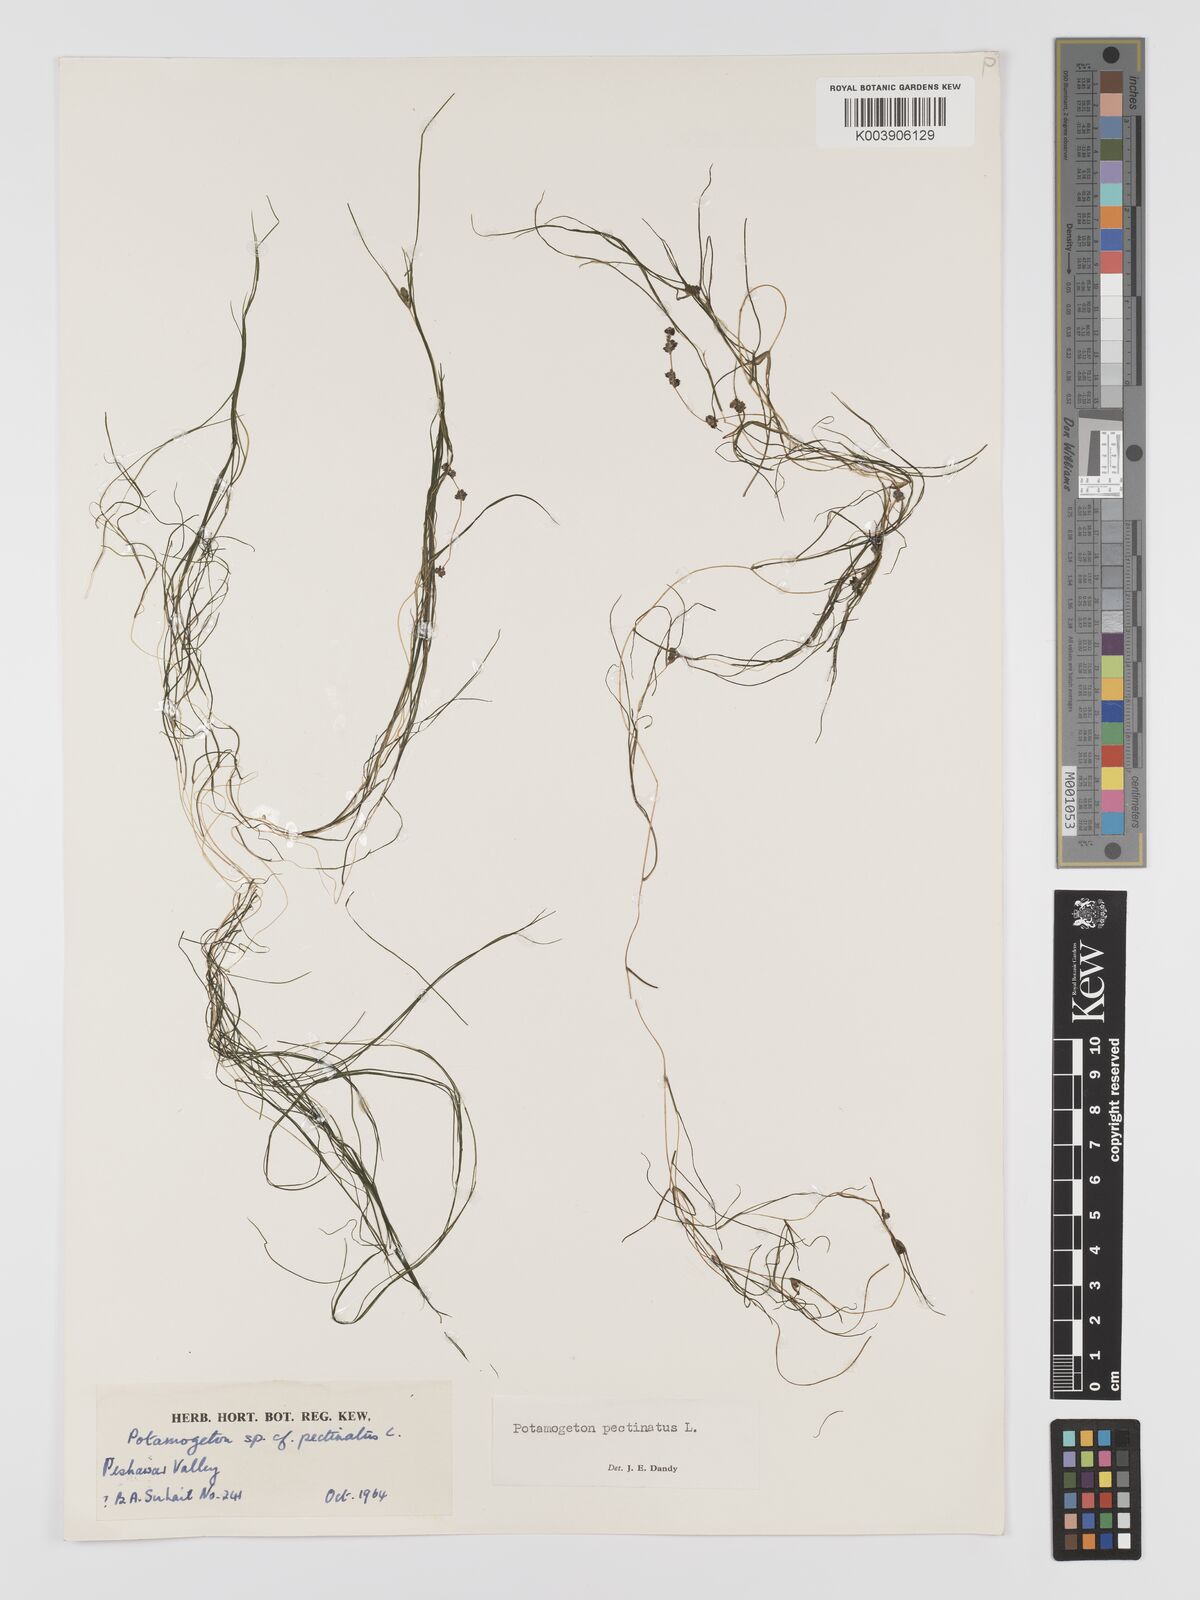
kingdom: Plantae
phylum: Tracheophyta
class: Liliopsida
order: Alismatales
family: Potamogetonaceae
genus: Stuckenia
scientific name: Stuckenia pectinata
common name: Sago pondweed
